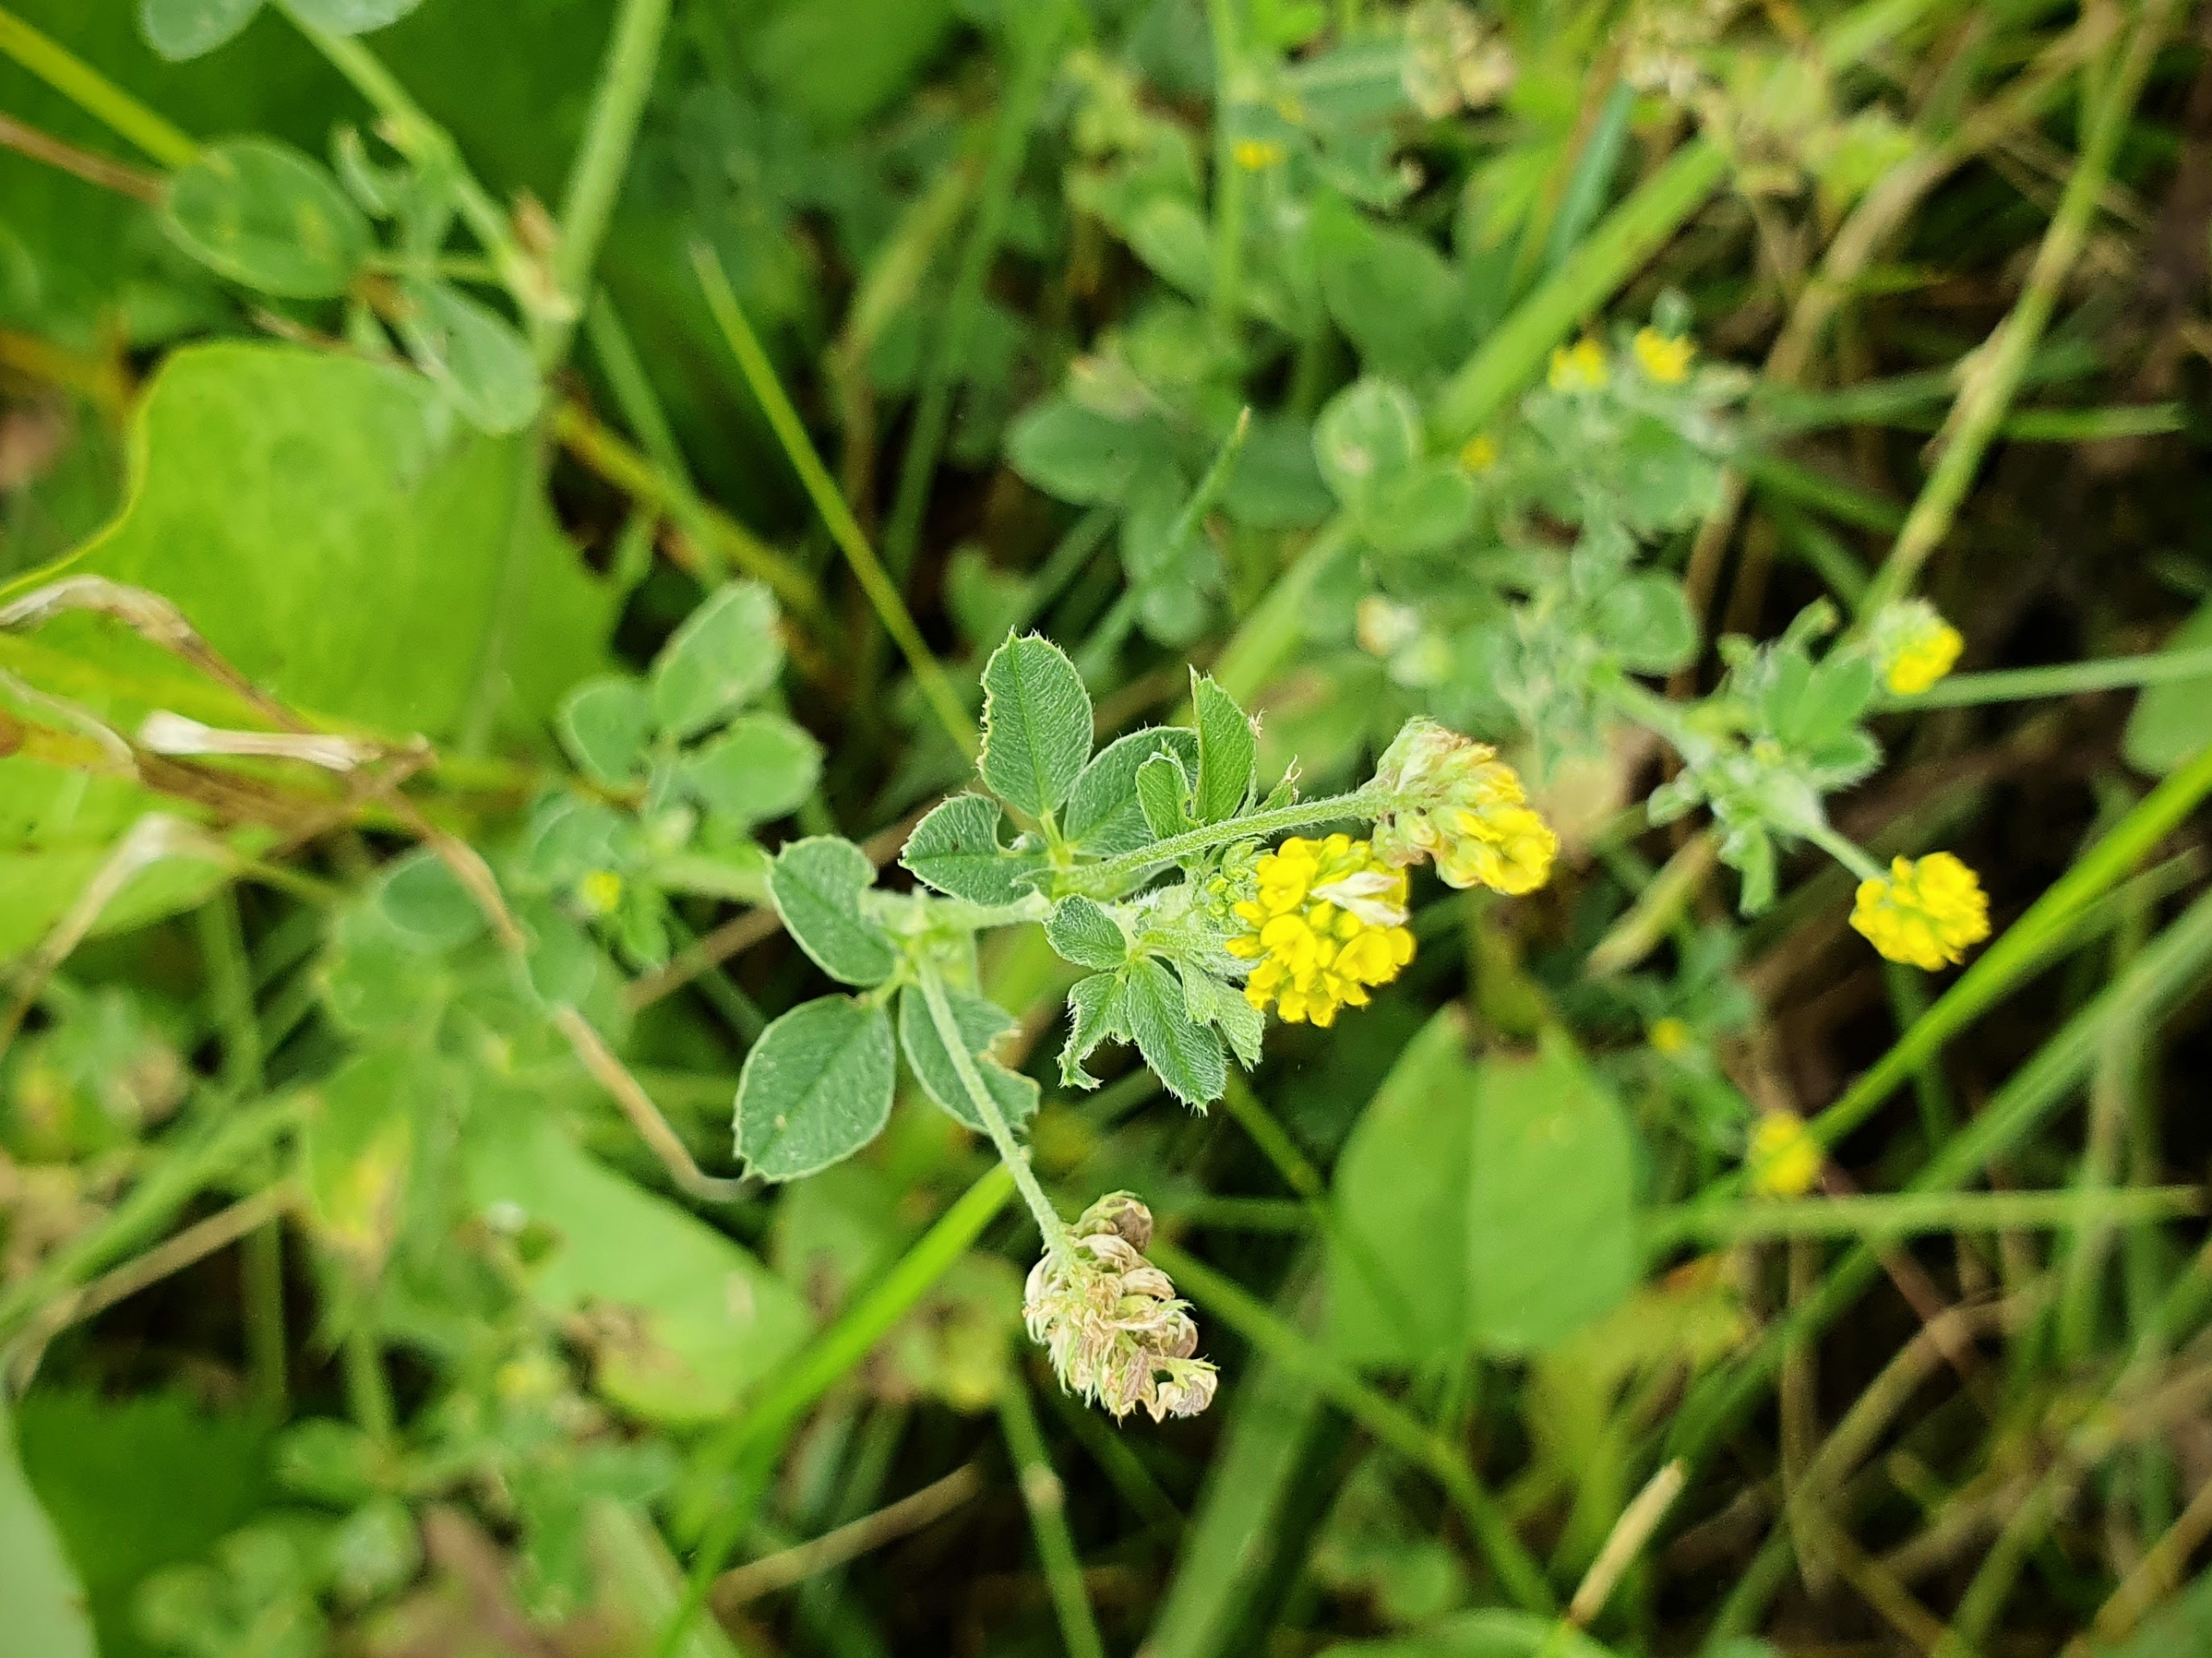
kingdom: Plantae
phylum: Tracheophyta
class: Magnoliopsida
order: Fabales
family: Fabaceae
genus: Medicago
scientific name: Medicago lupulina
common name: Humle-sneglebælg
